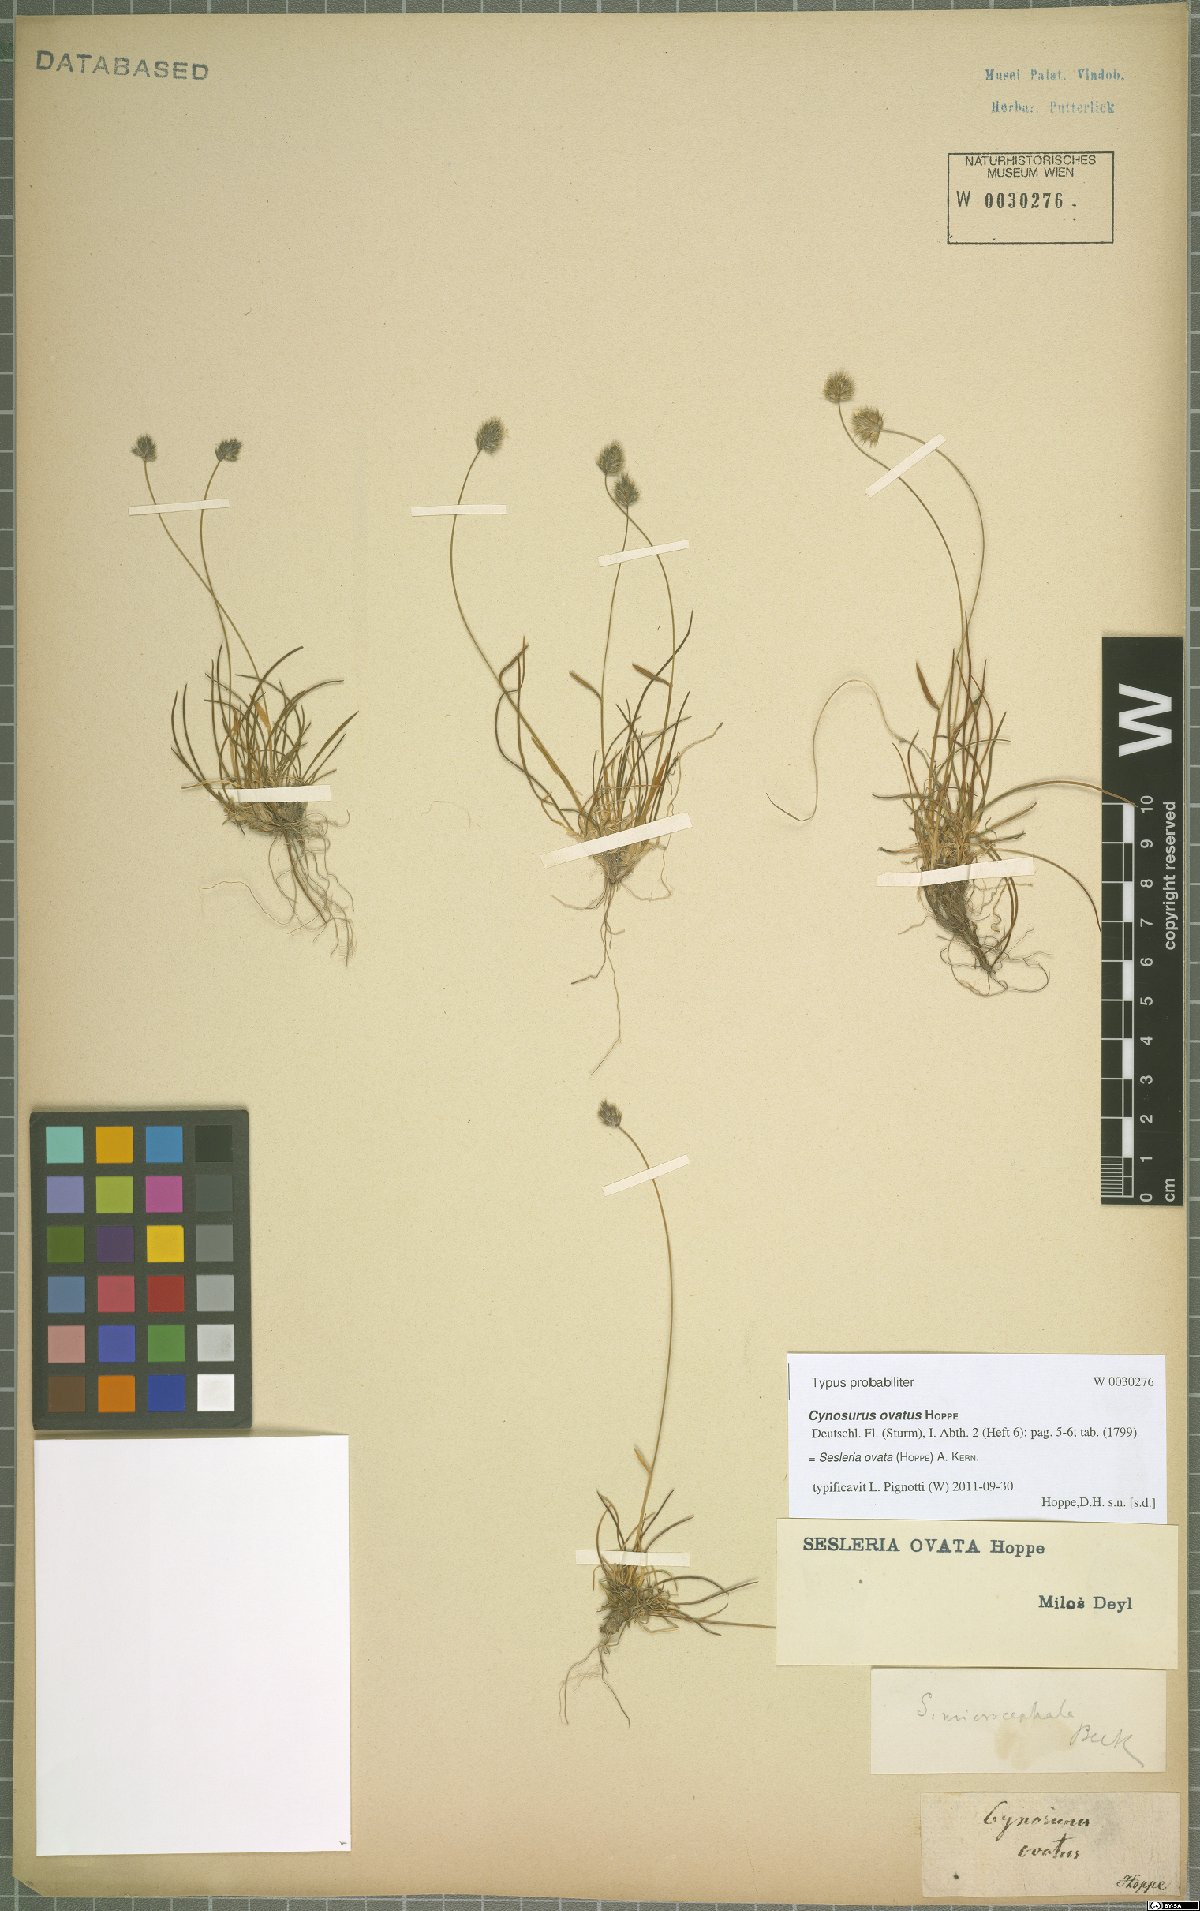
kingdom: Plantae
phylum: Tracheophyta
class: Liliopsida
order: Poales
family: Poaceae
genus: Psilathera
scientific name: Psilathera ovata
